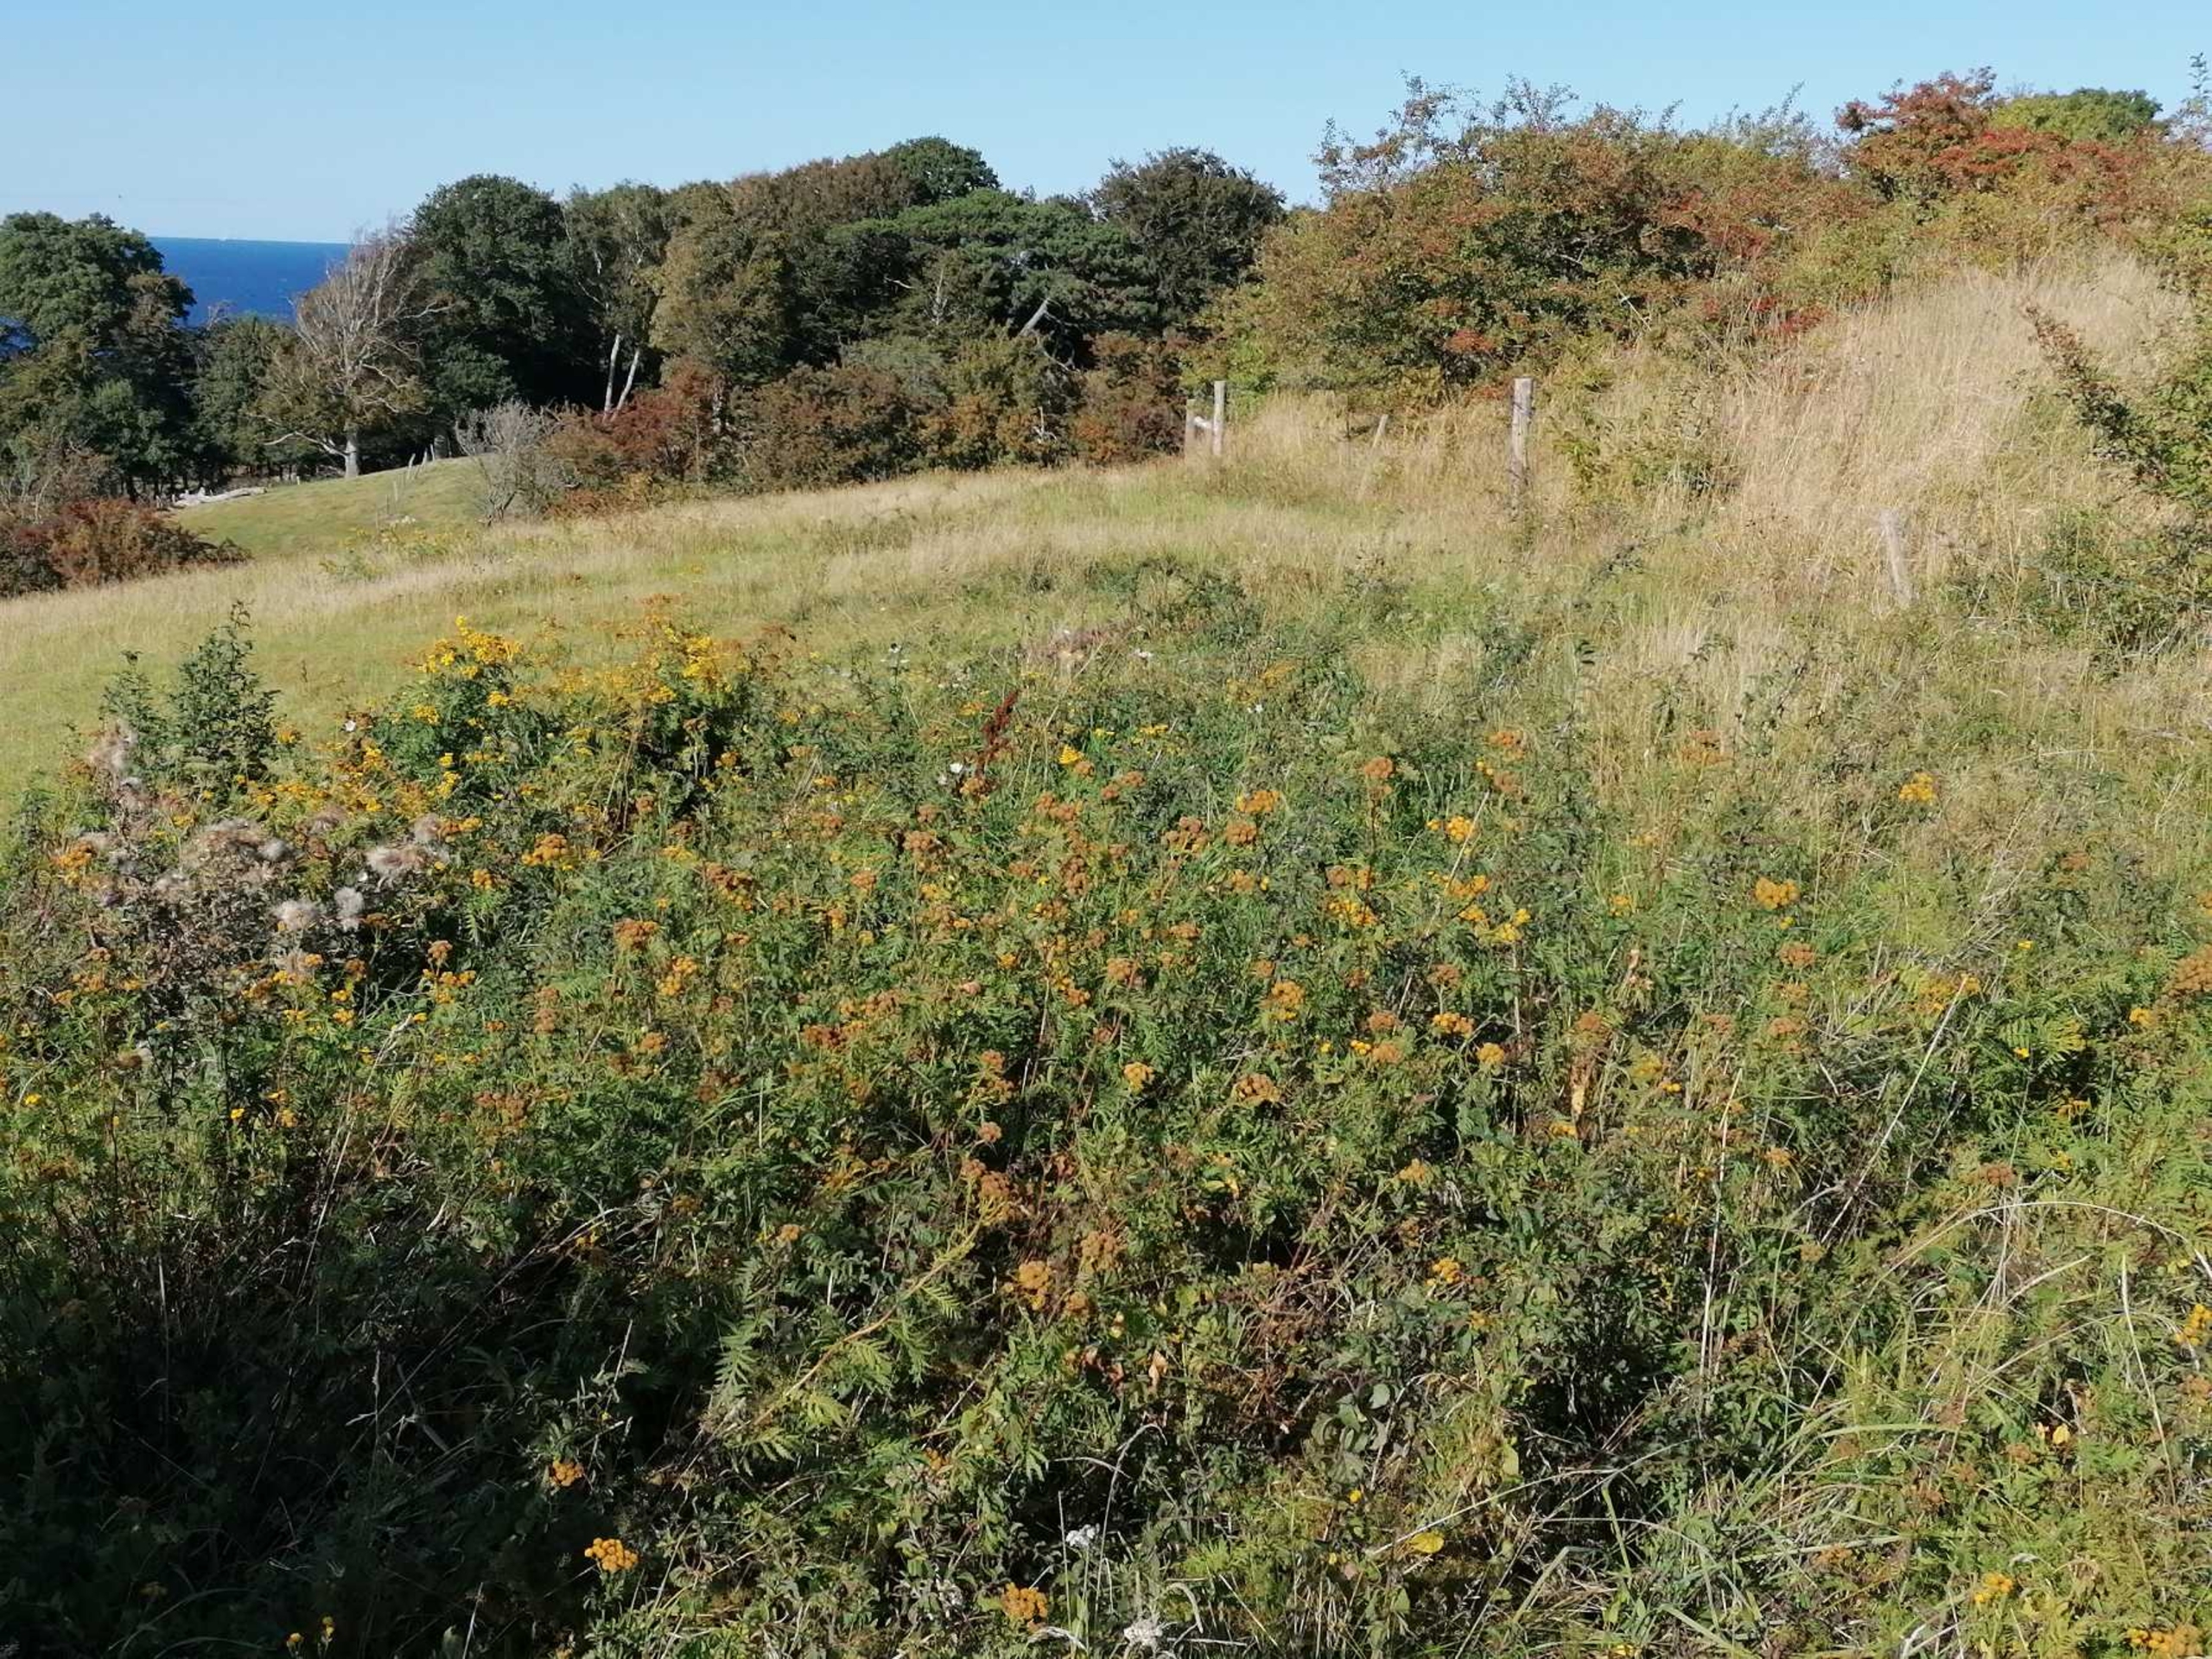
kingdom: Plantae
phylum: Tracheophyta
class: Magnoliopsida
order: Asterales
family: Asteraceae
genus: Tanacetum
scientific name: Tanacetum vulgare
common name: Rejnfan
